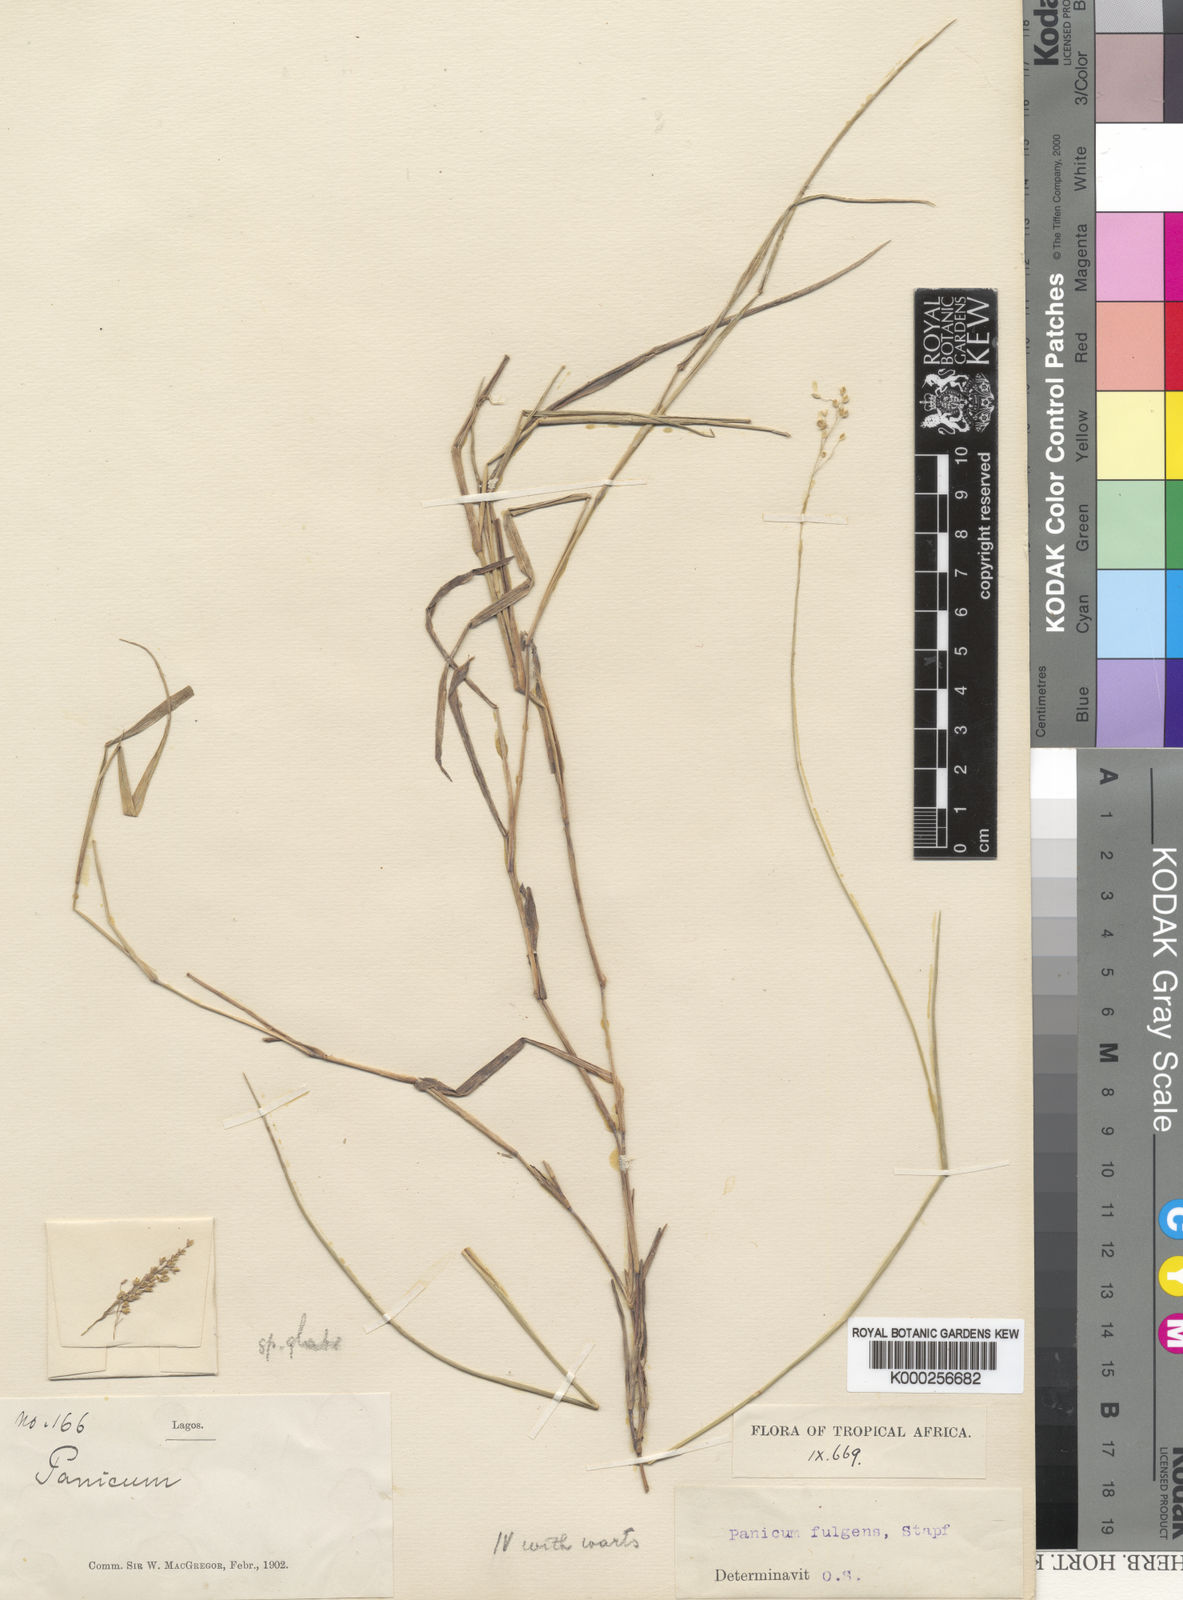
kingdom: Plantae
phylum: Tracheophyta
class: Liliopsida
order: Poales
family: Poaceae
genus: Trichanthecium
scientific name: Trichanthecium nervatum
